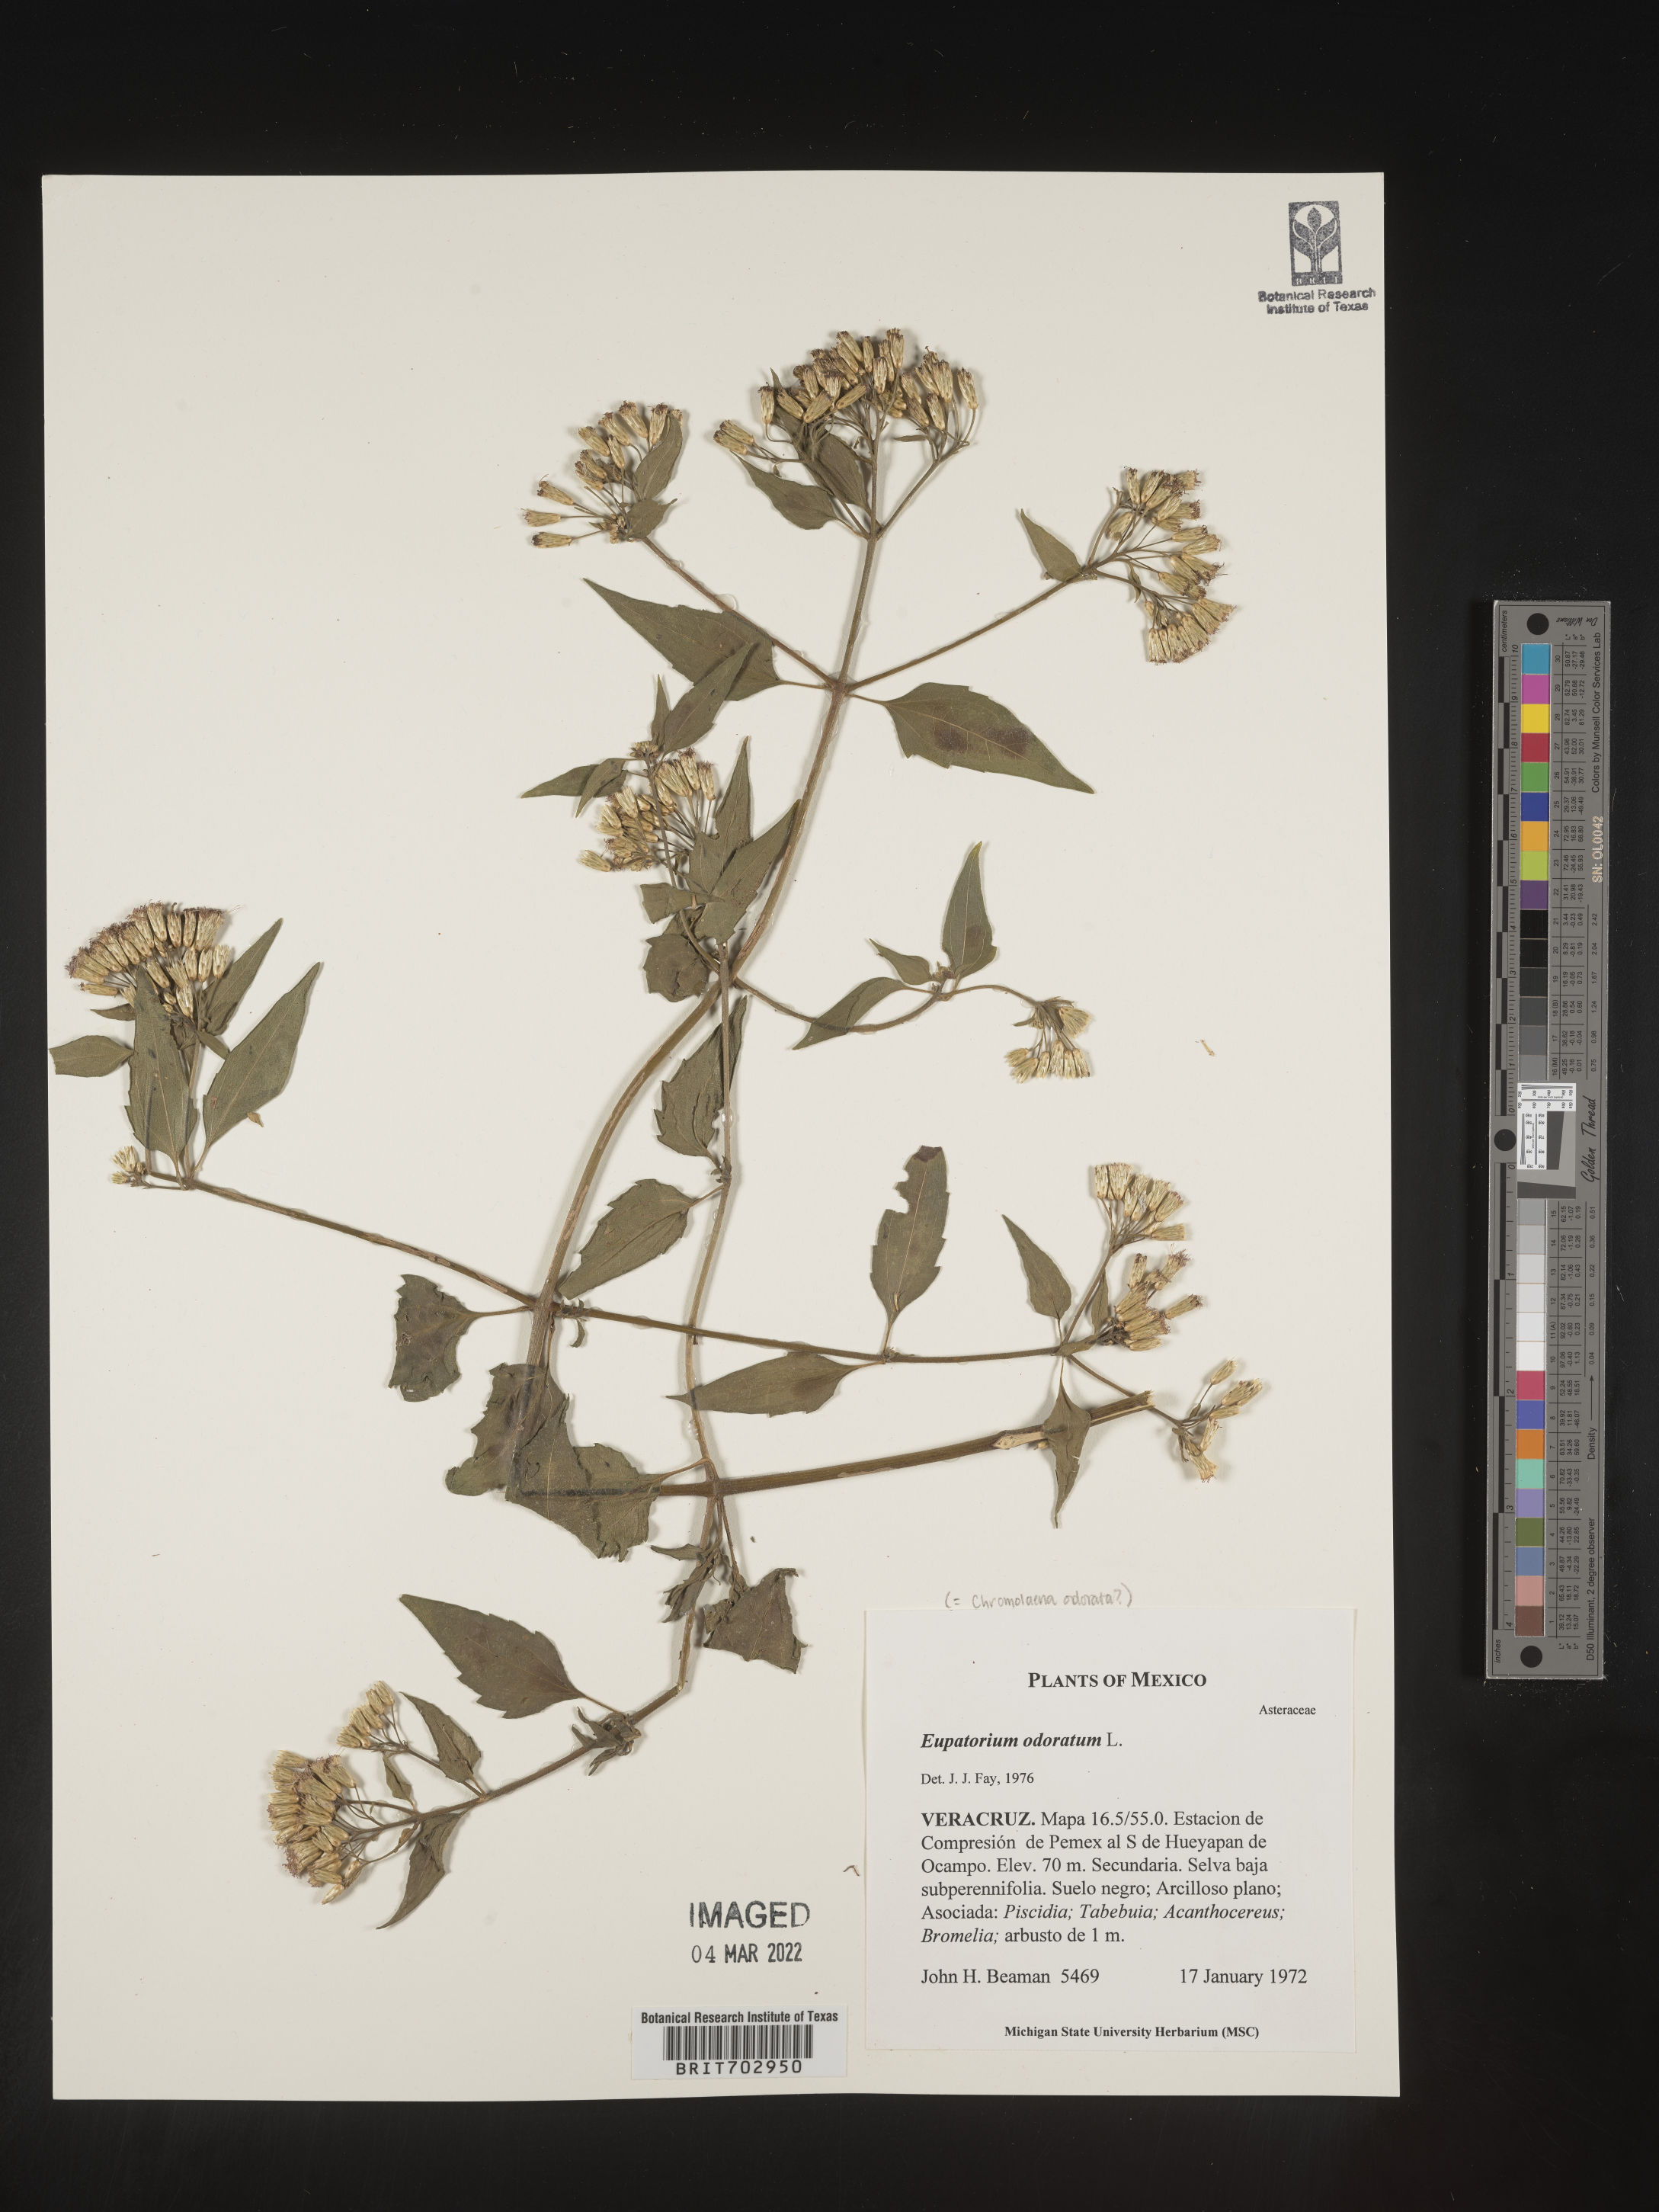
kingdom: Plantae
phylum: Tracheophyta
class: Magnoliopsida
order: Asterales
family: Asteraceae
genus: Eupatorium
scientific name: Eupatorium
